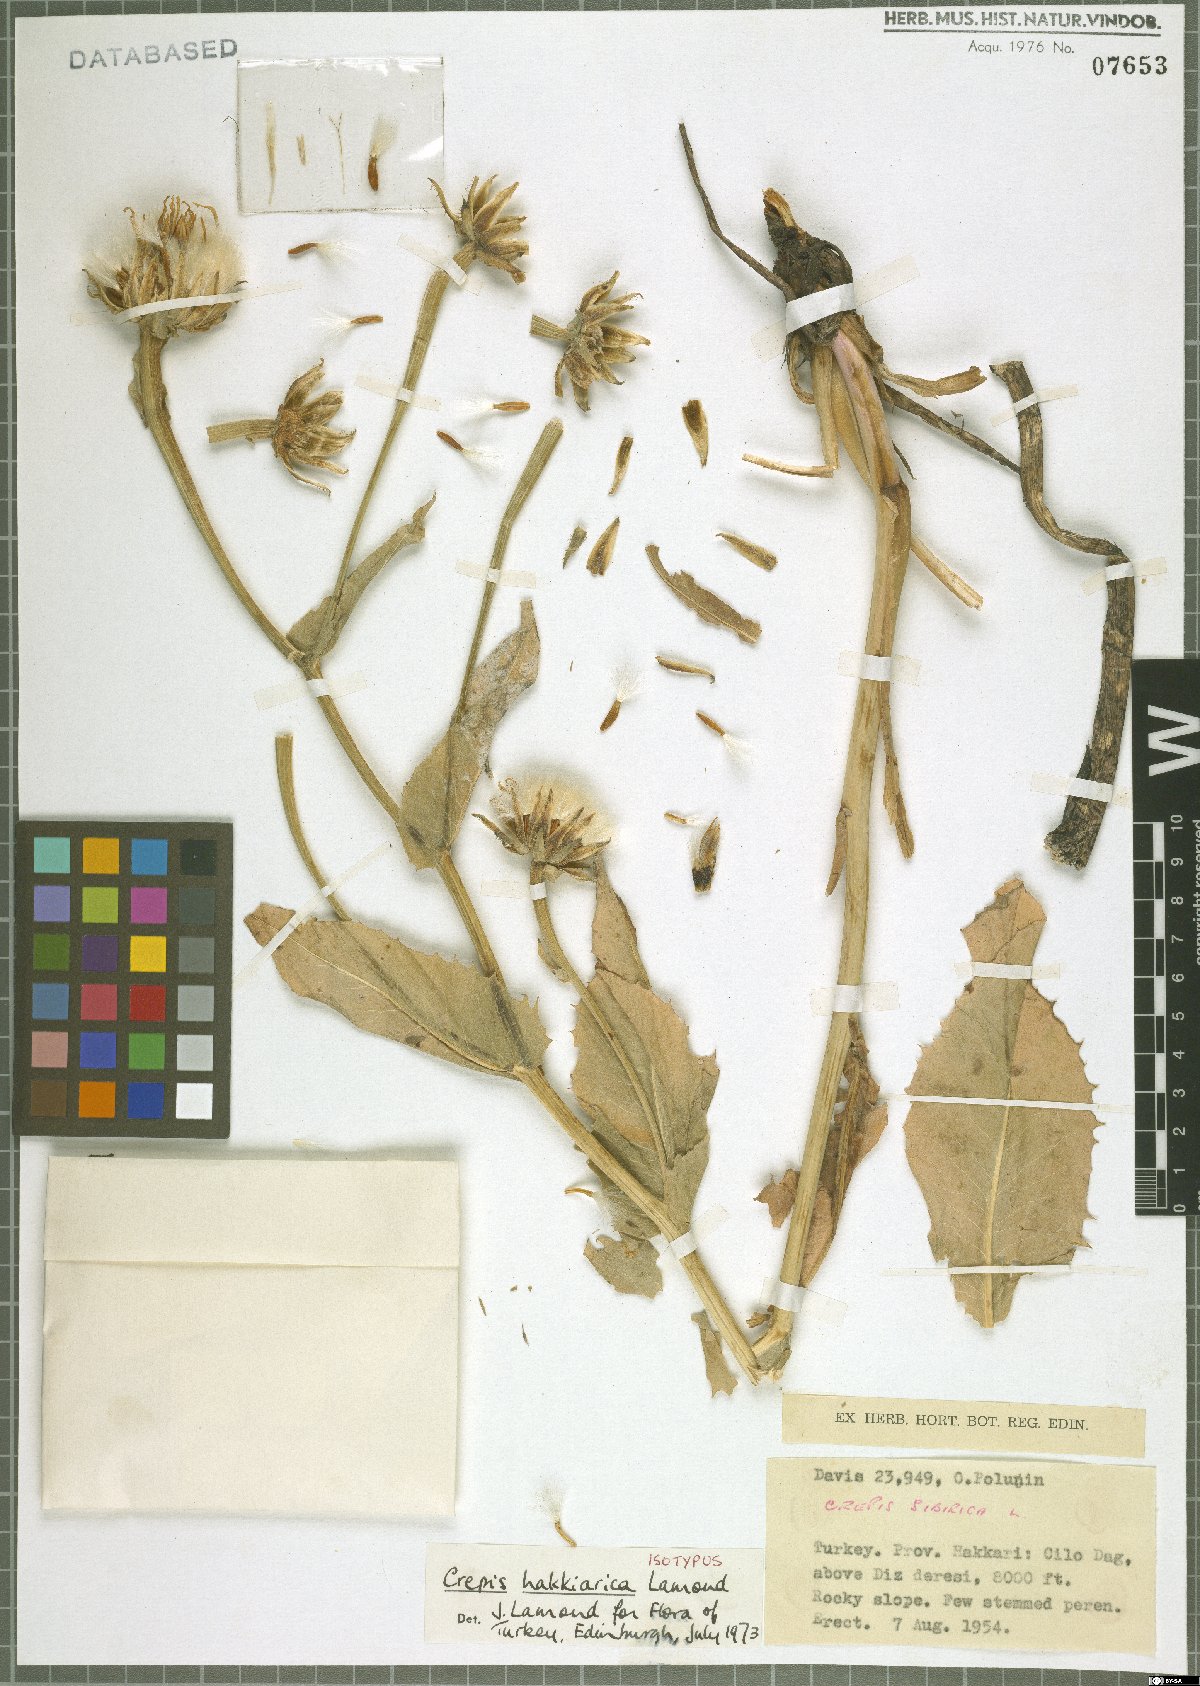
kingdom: Plantae
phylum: Tracheophyta
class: Magnoliopsida
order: Asterales
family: Asteraceae
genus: Crepis
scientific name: Crepis hakkarica
